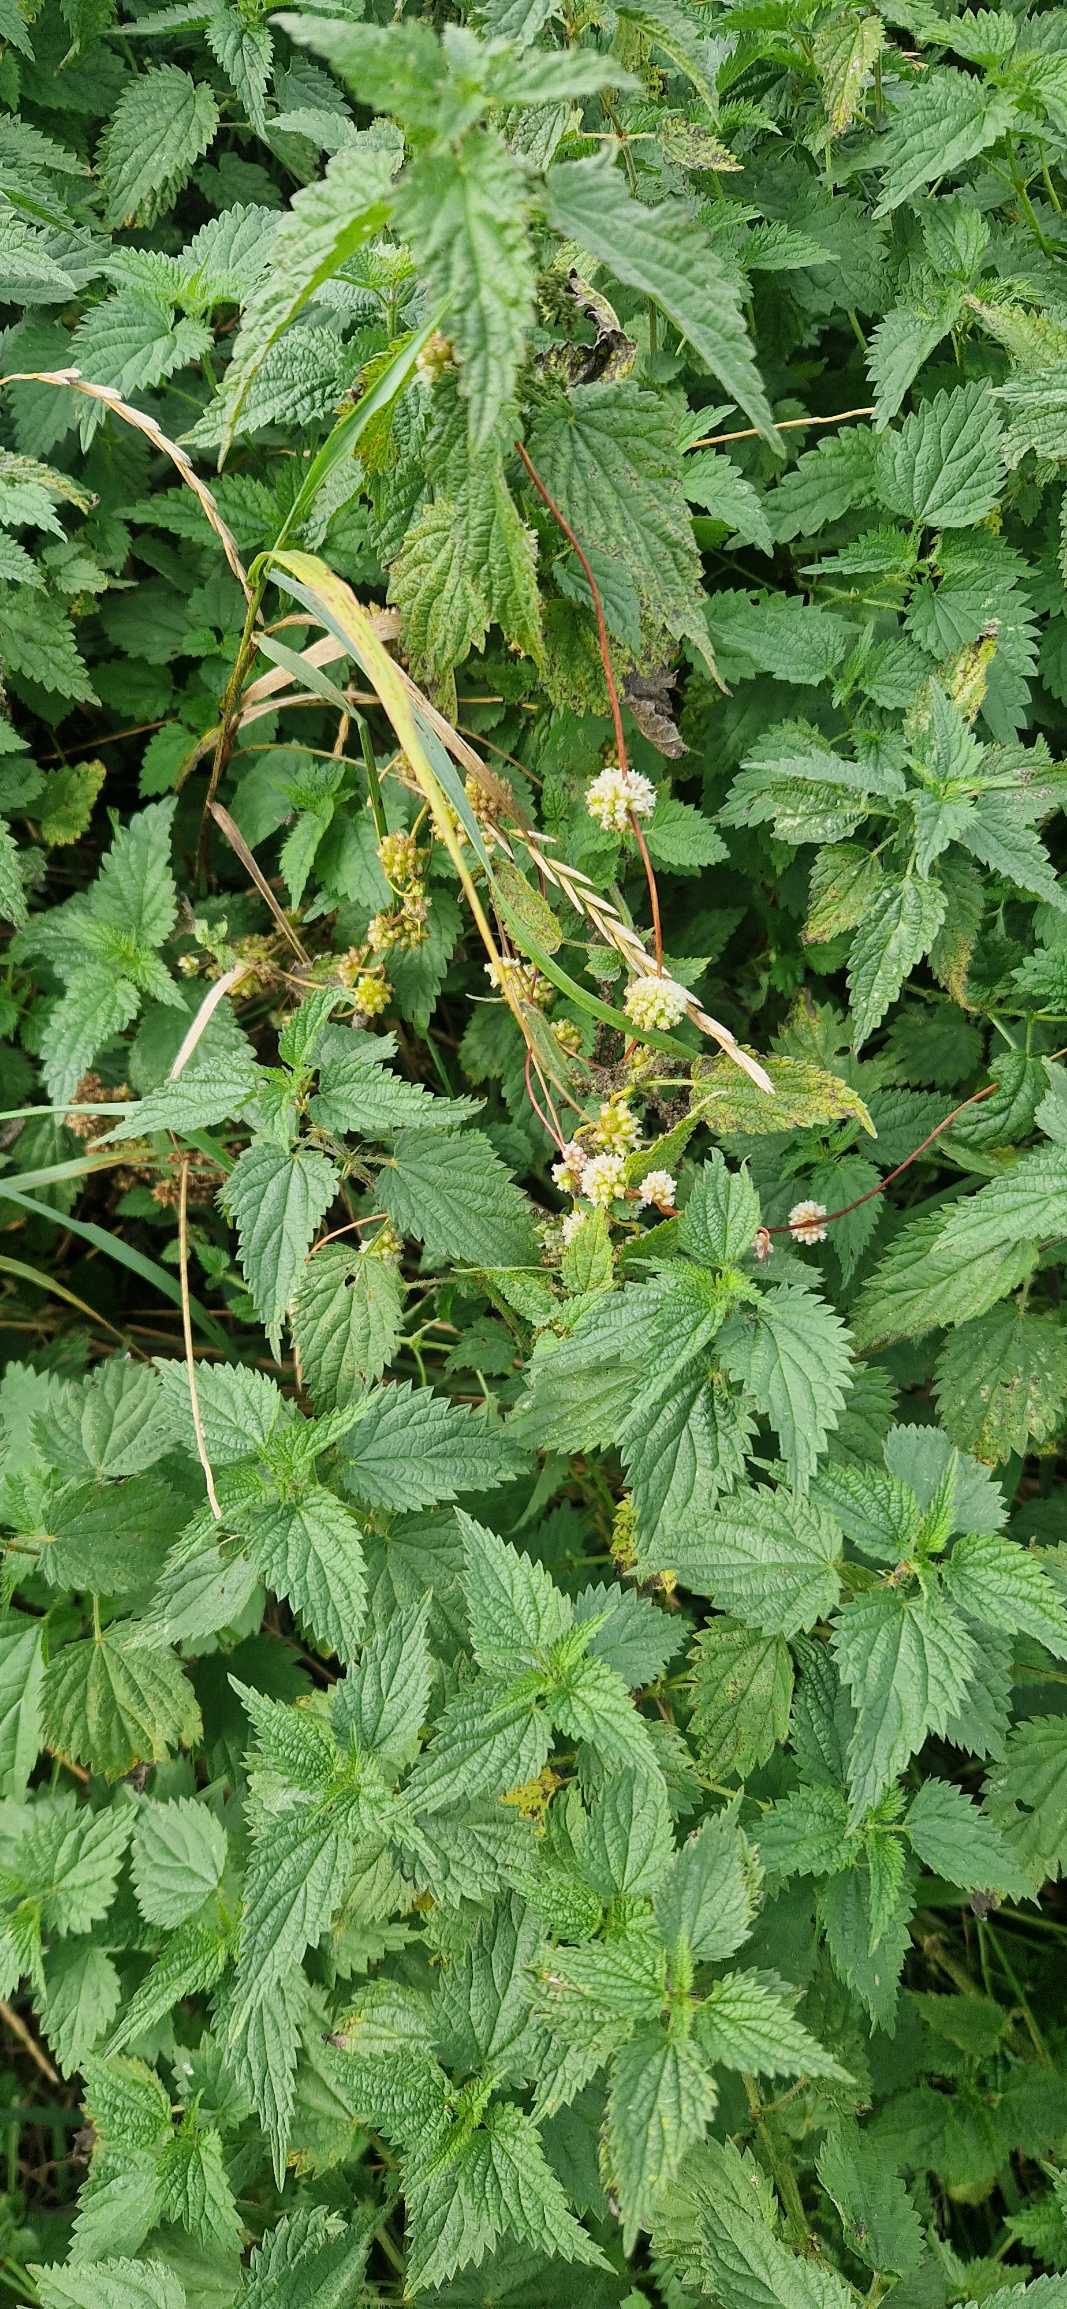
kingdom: Plantae
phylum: Tracheophyta
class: Magnoliopsida
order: Solanales
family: Convolvulaceae
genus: Cuscuta
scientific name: Cuscuta europaea
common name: Nælde-silke
